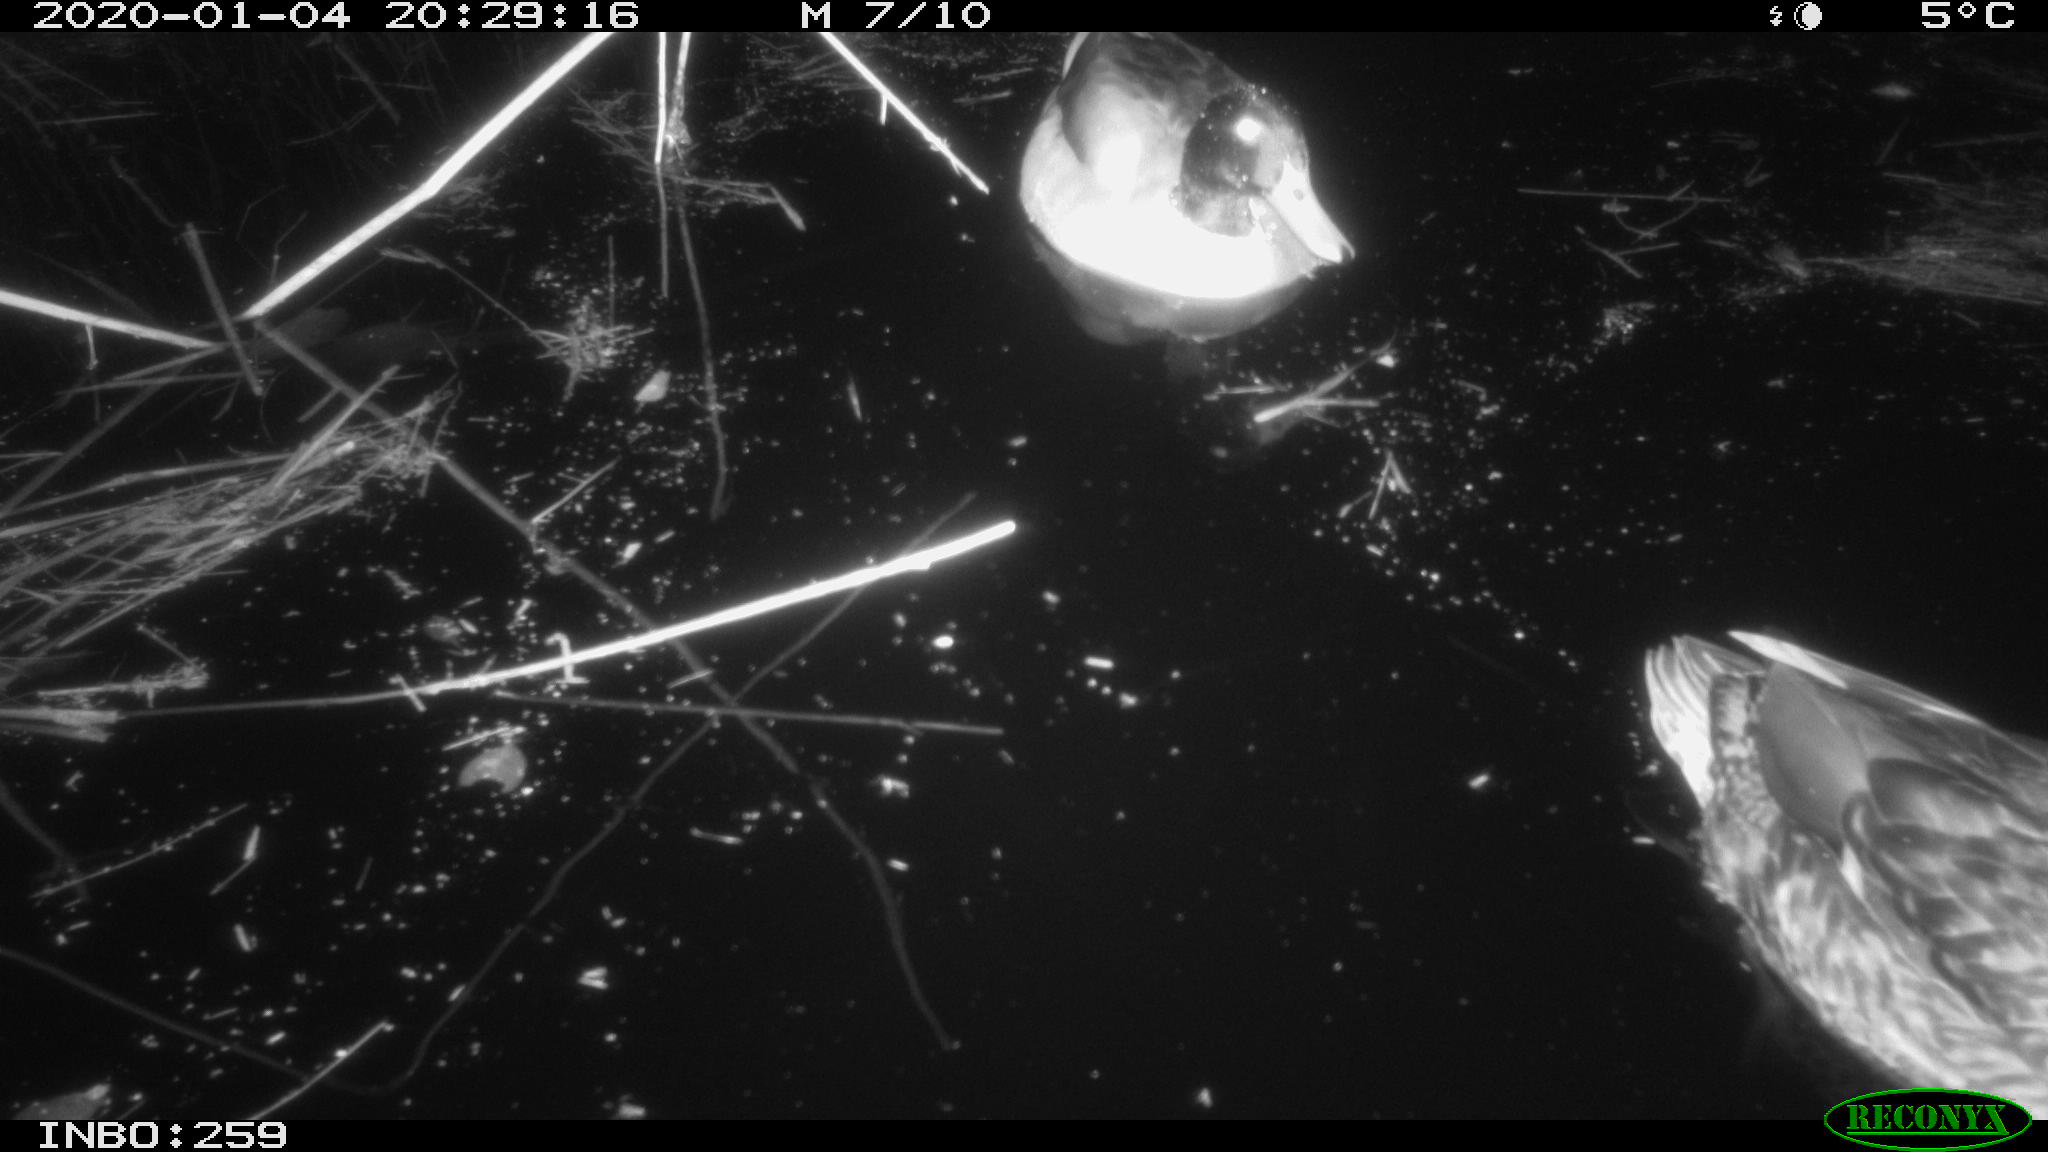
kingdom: Animalia
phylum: Chordata
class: Aves
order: Anseriformes
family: Anatidae
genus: Anas
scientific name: Anas platyrhynchos
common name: Mallard
